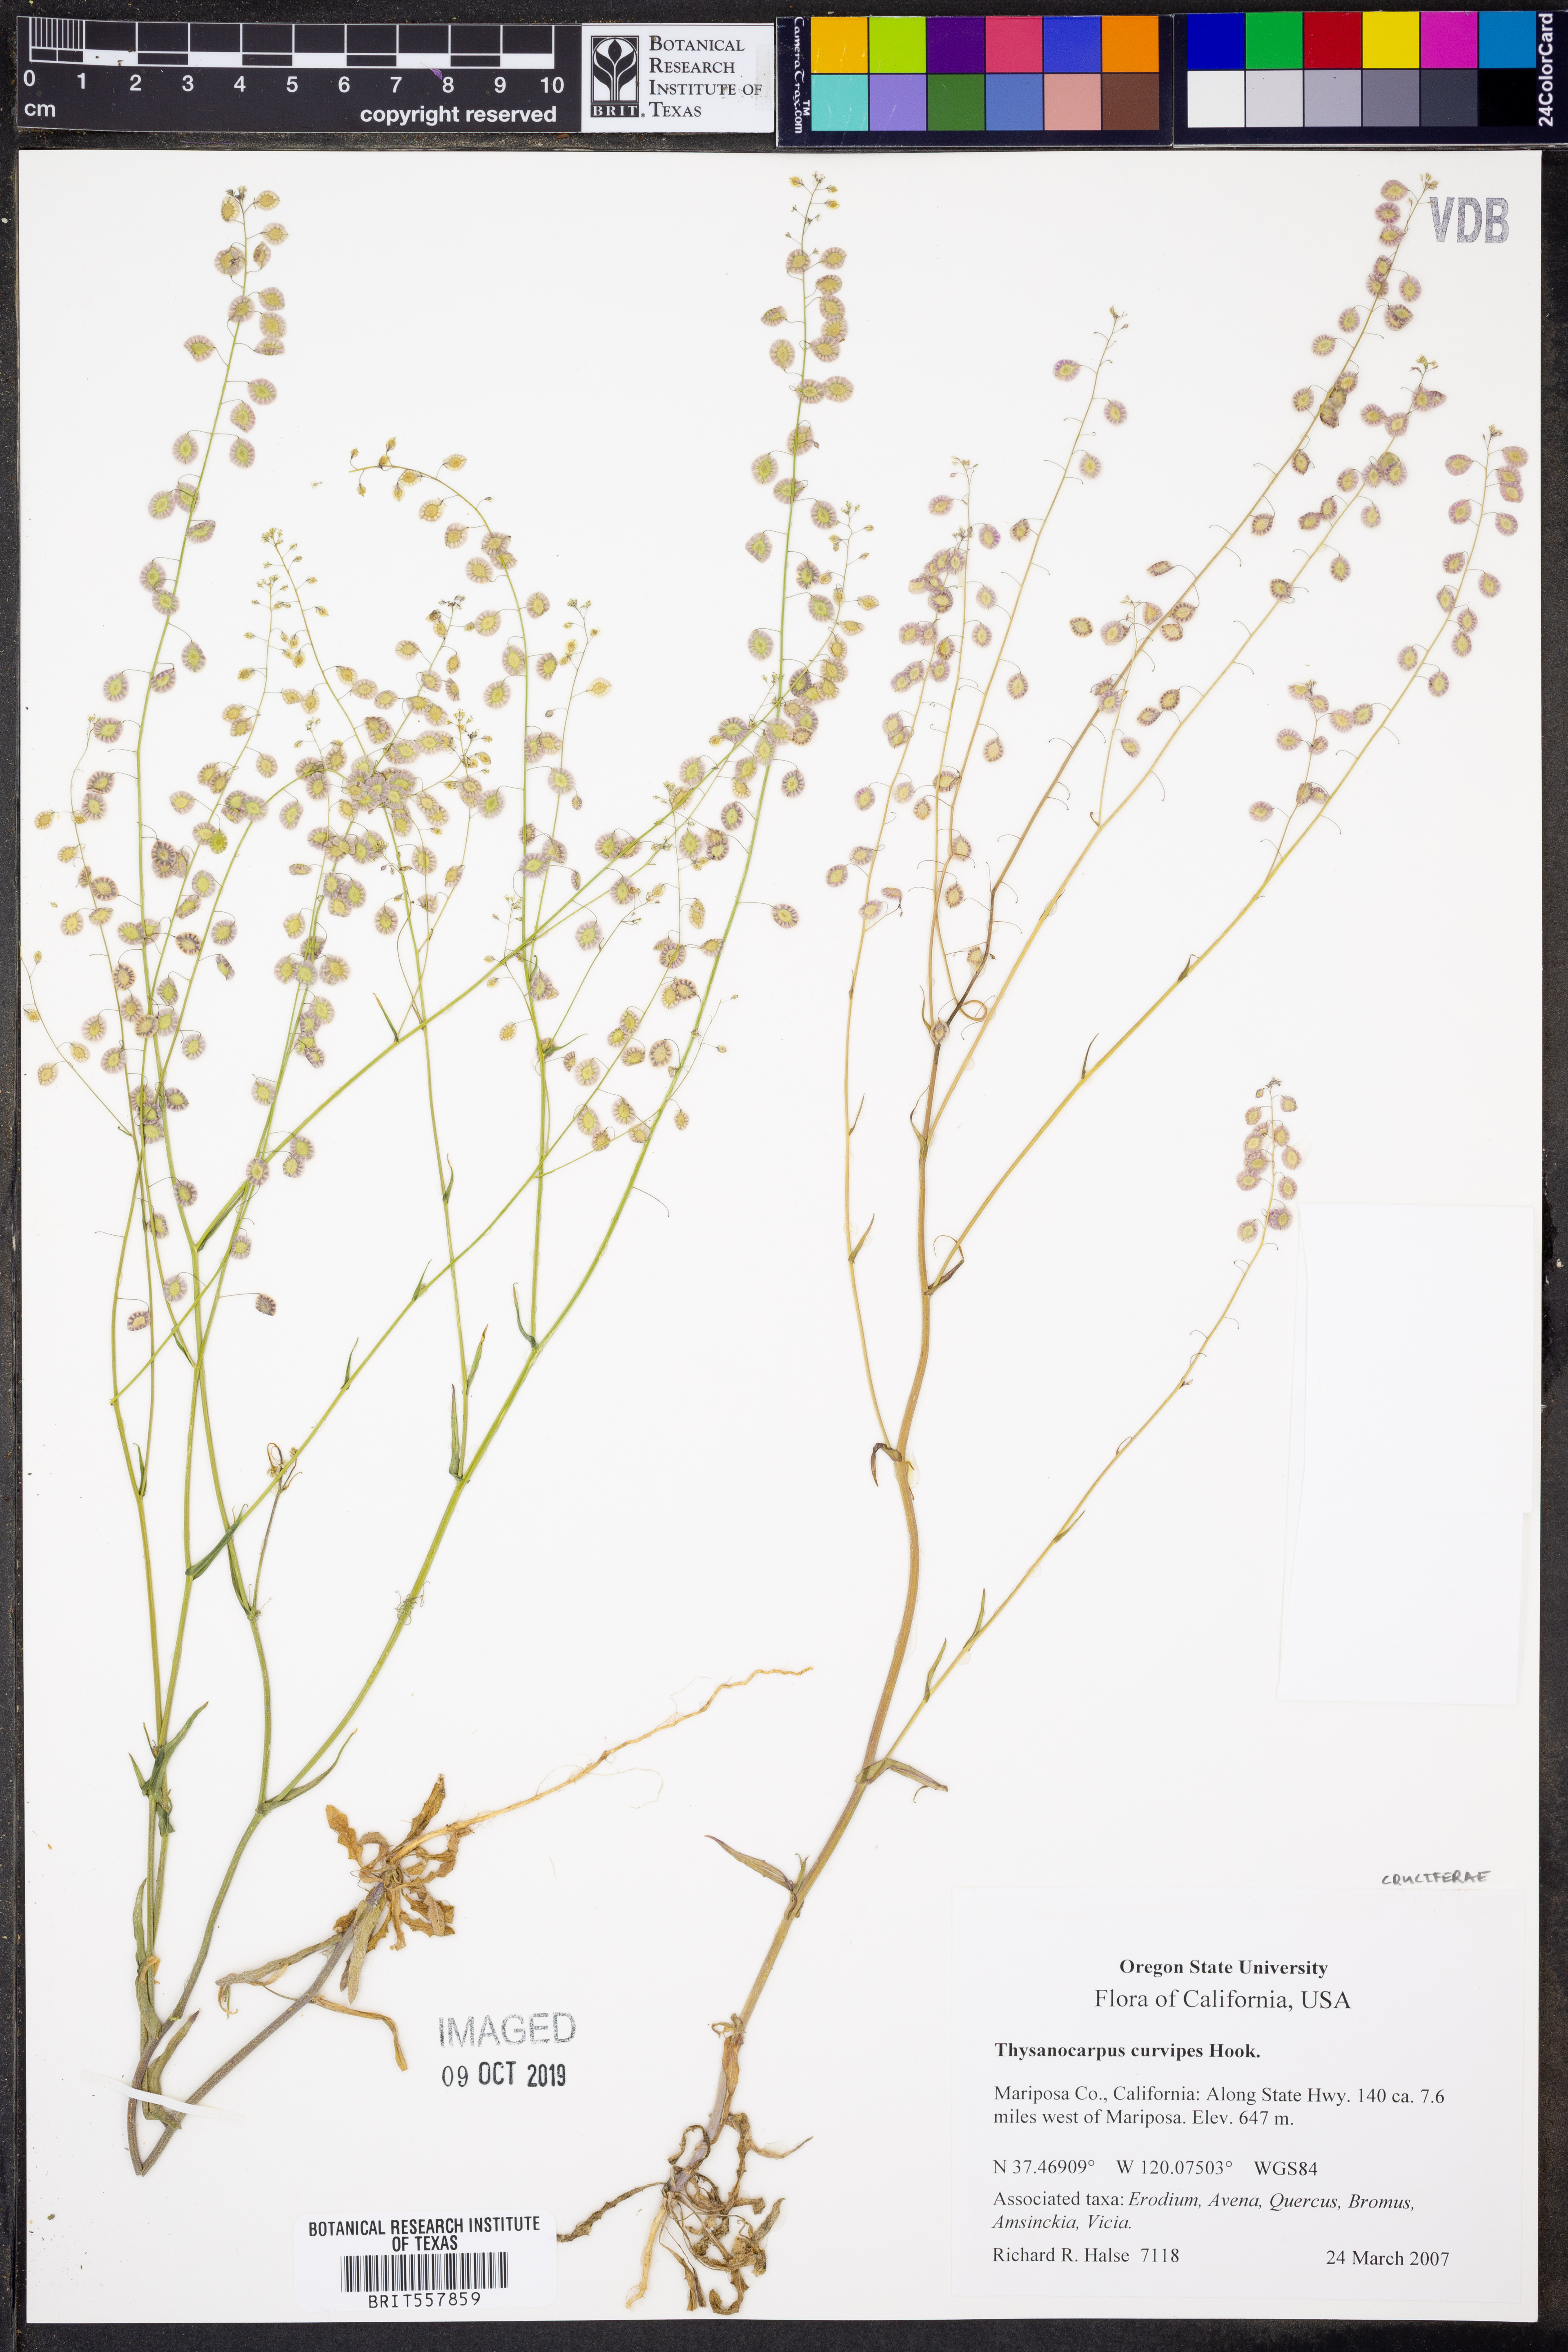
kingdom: Plantae
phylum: Tracheophyta
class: Magnoliopsida
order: Brassicales
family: Brassicaceae
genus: Thysanocarpus
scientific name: Thysanocarpus curvipes
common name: Sand fringepod
